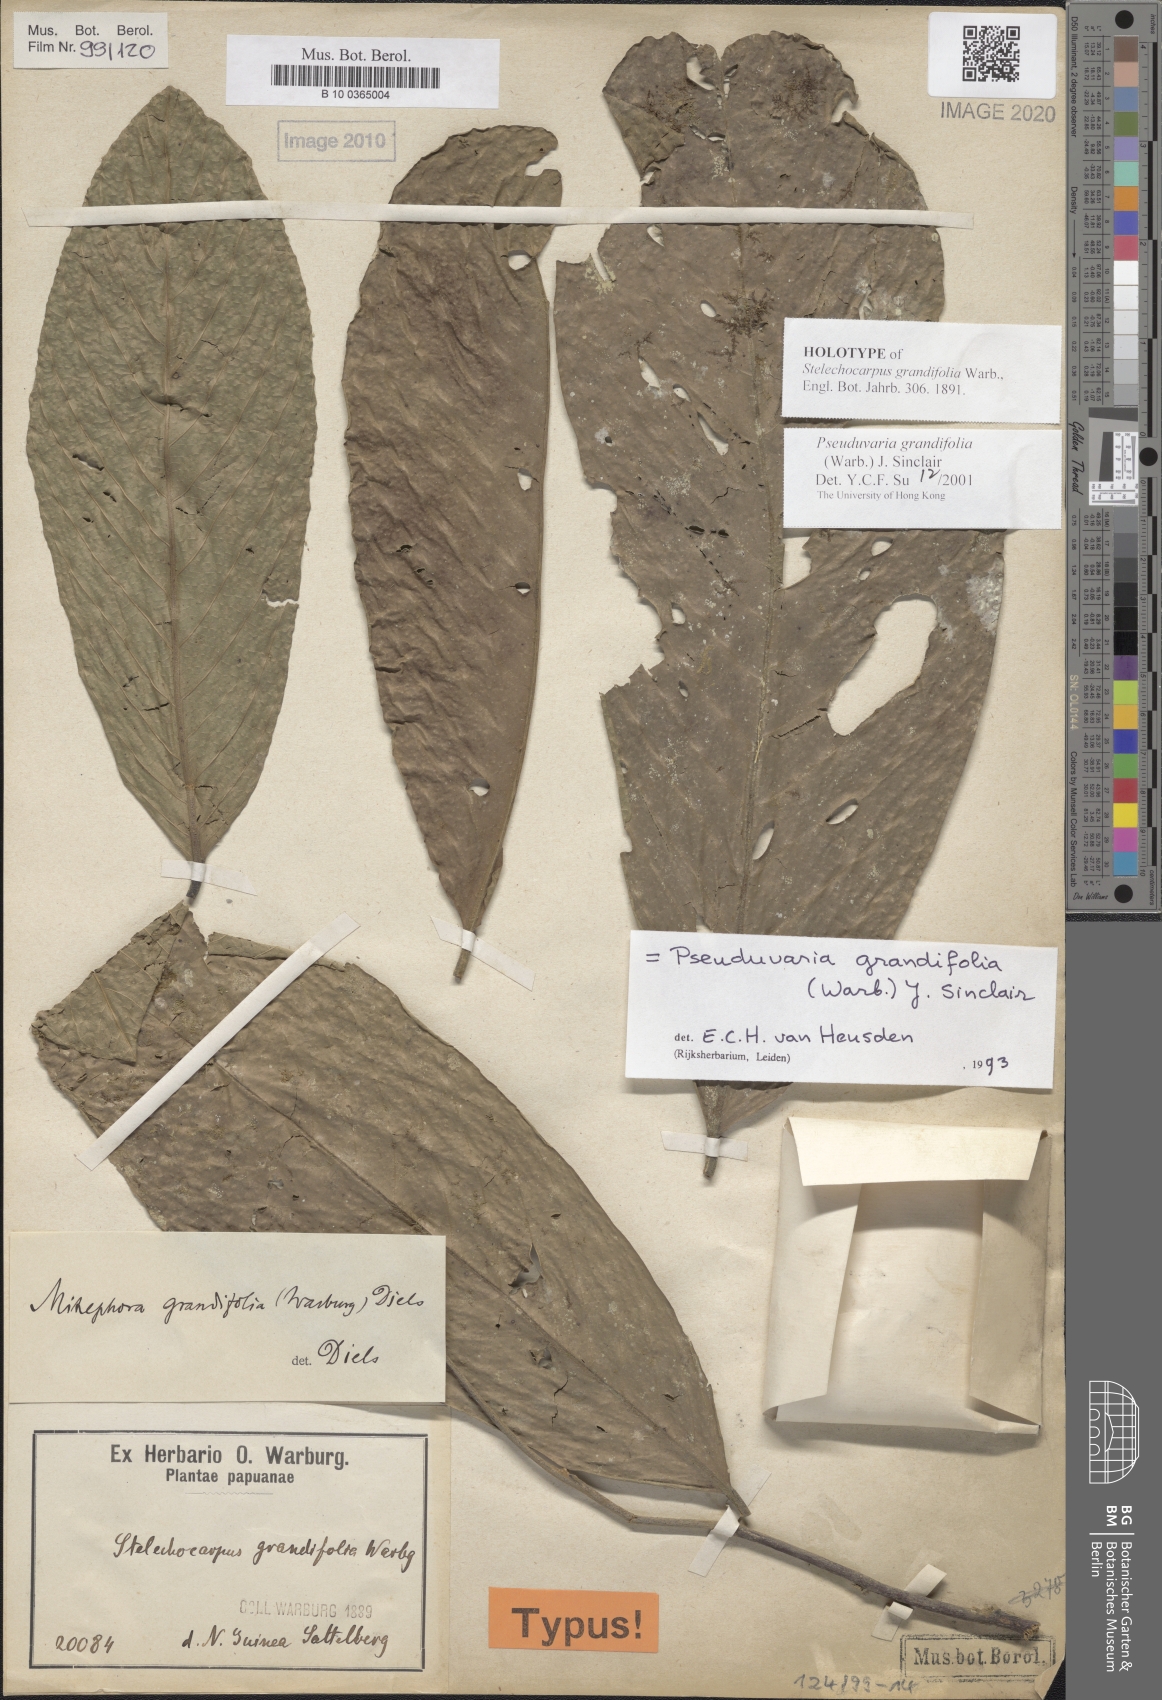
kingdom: Plantae
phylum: Tracheophyta
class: Magnoliopsida
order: Magnoliales
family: Annonaceae
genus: Pseuduvaria
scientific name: Pseuduvaria grandifolia
